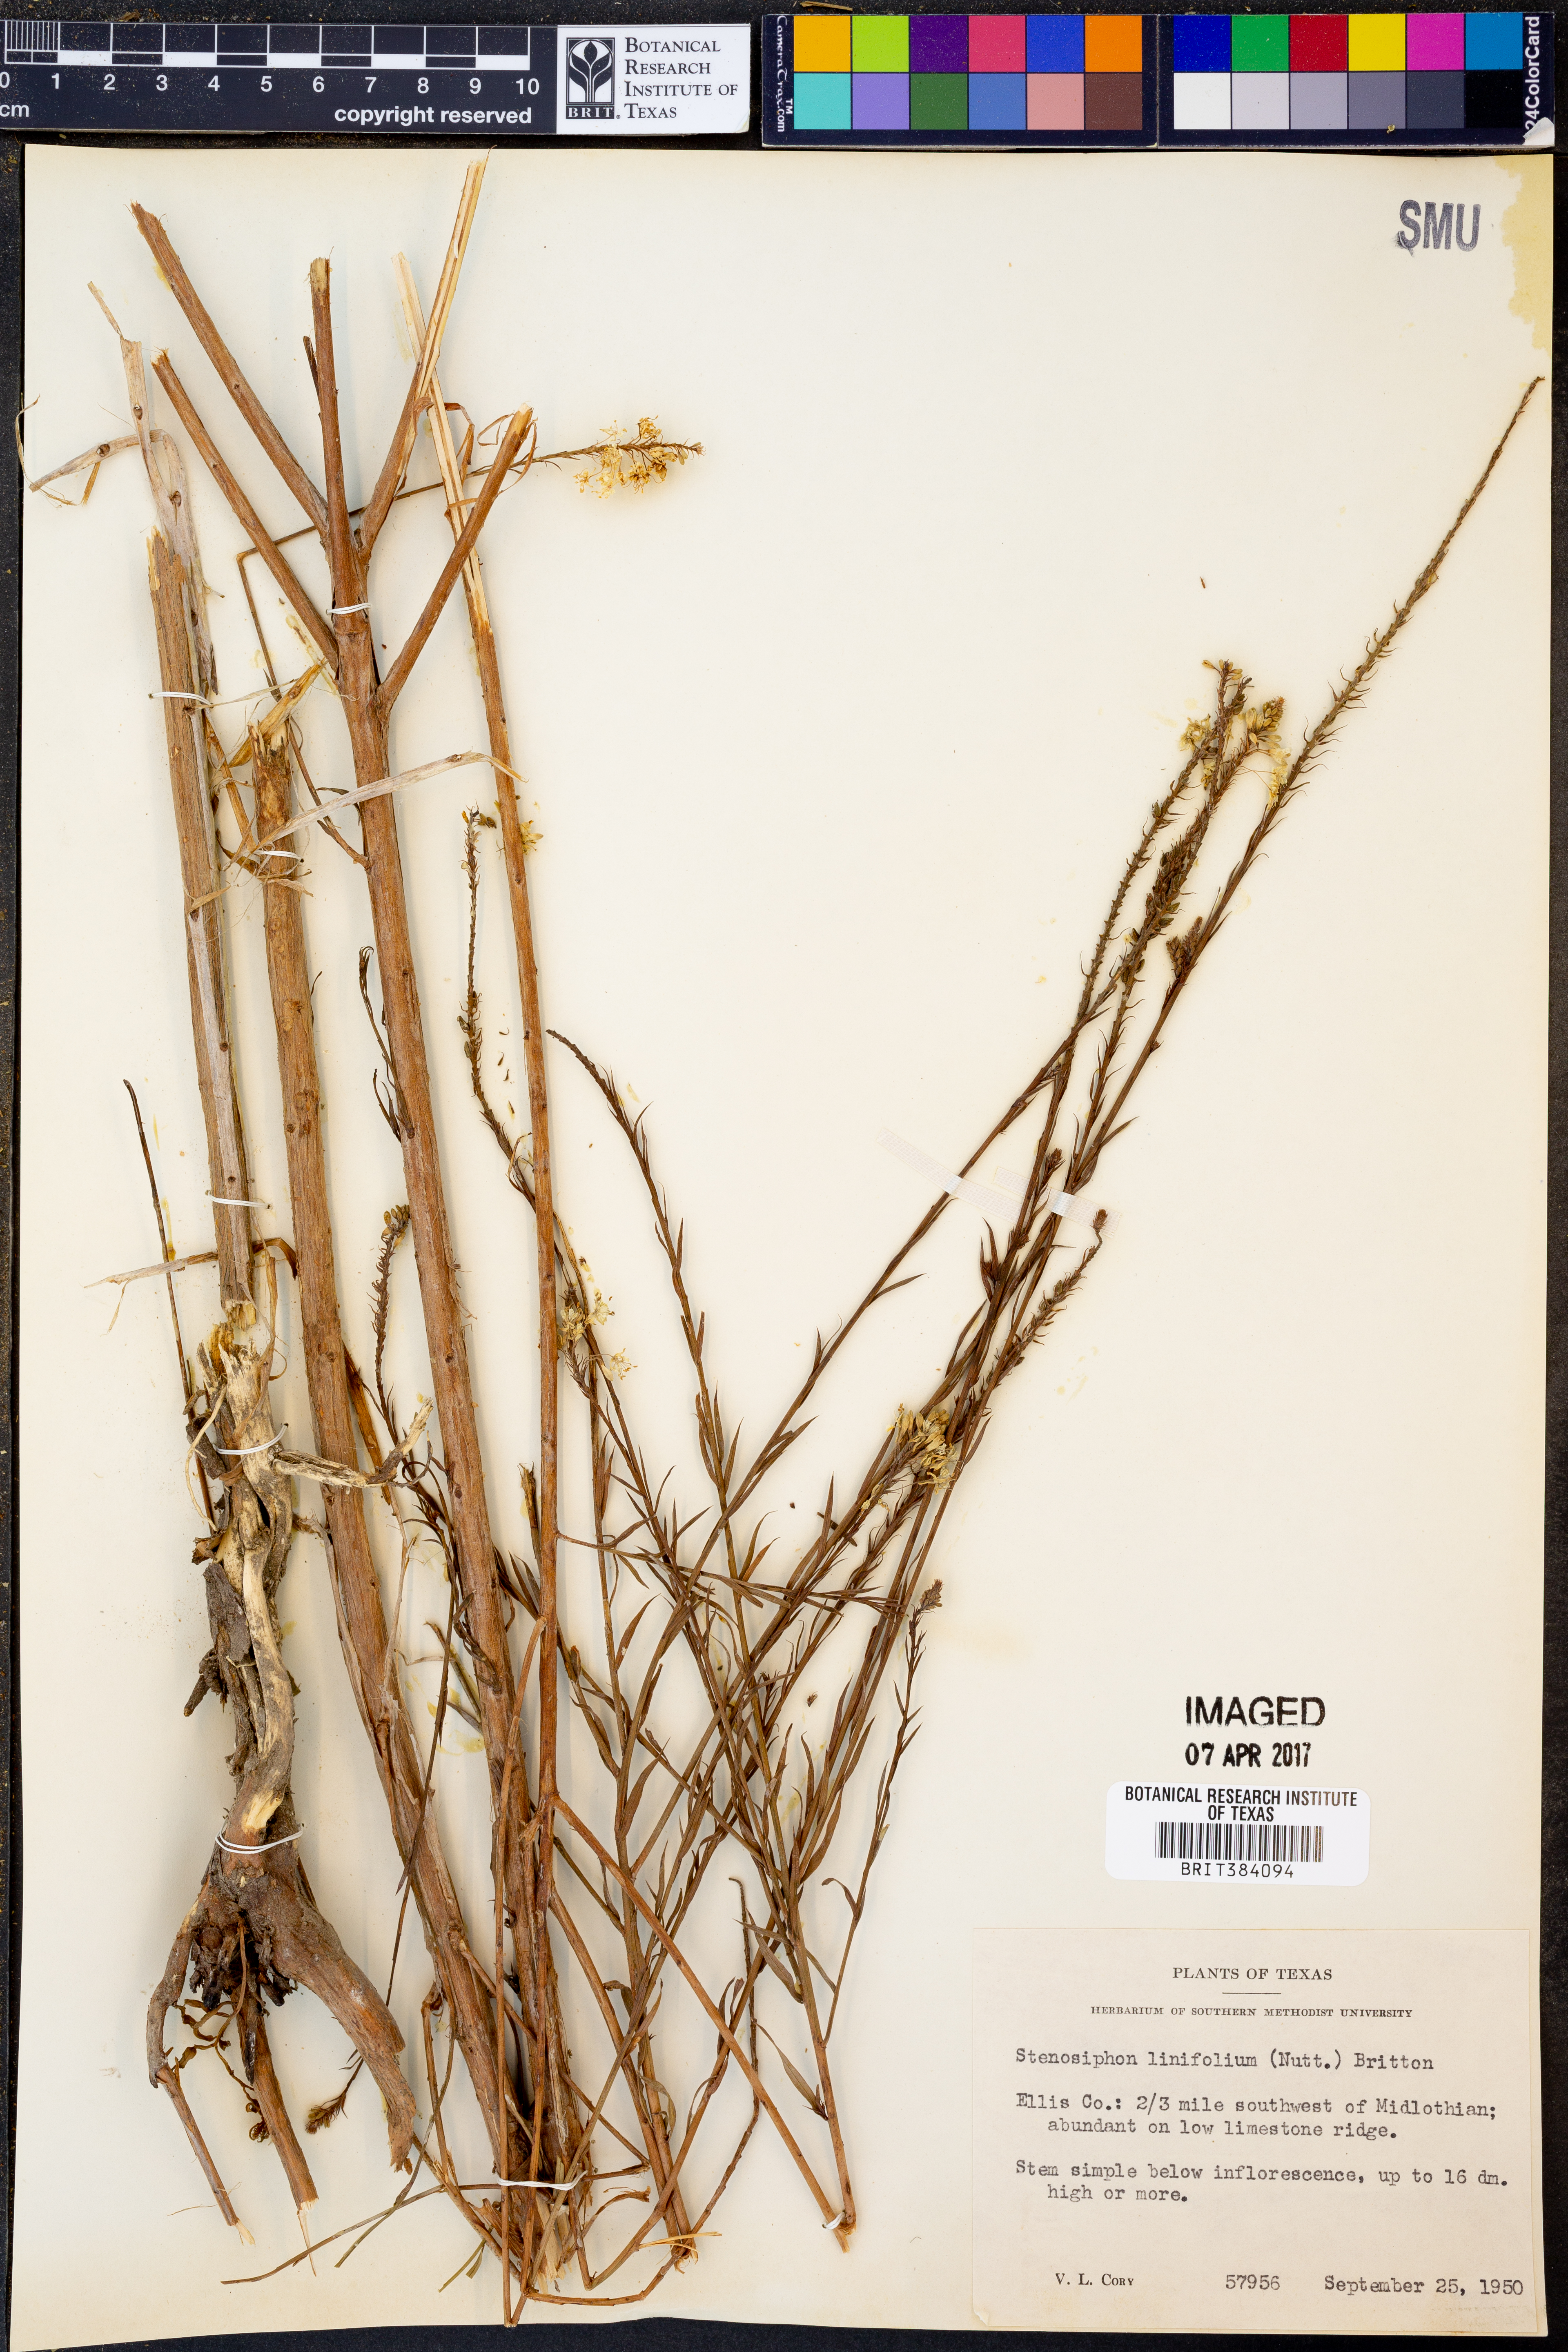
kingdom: Plantae
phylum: Tracheophyta
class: Magnoliopsida
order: Myrtales
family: Onagraceae
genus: Oenothera
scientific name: Oenothera glaucifolia
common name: False gaura
